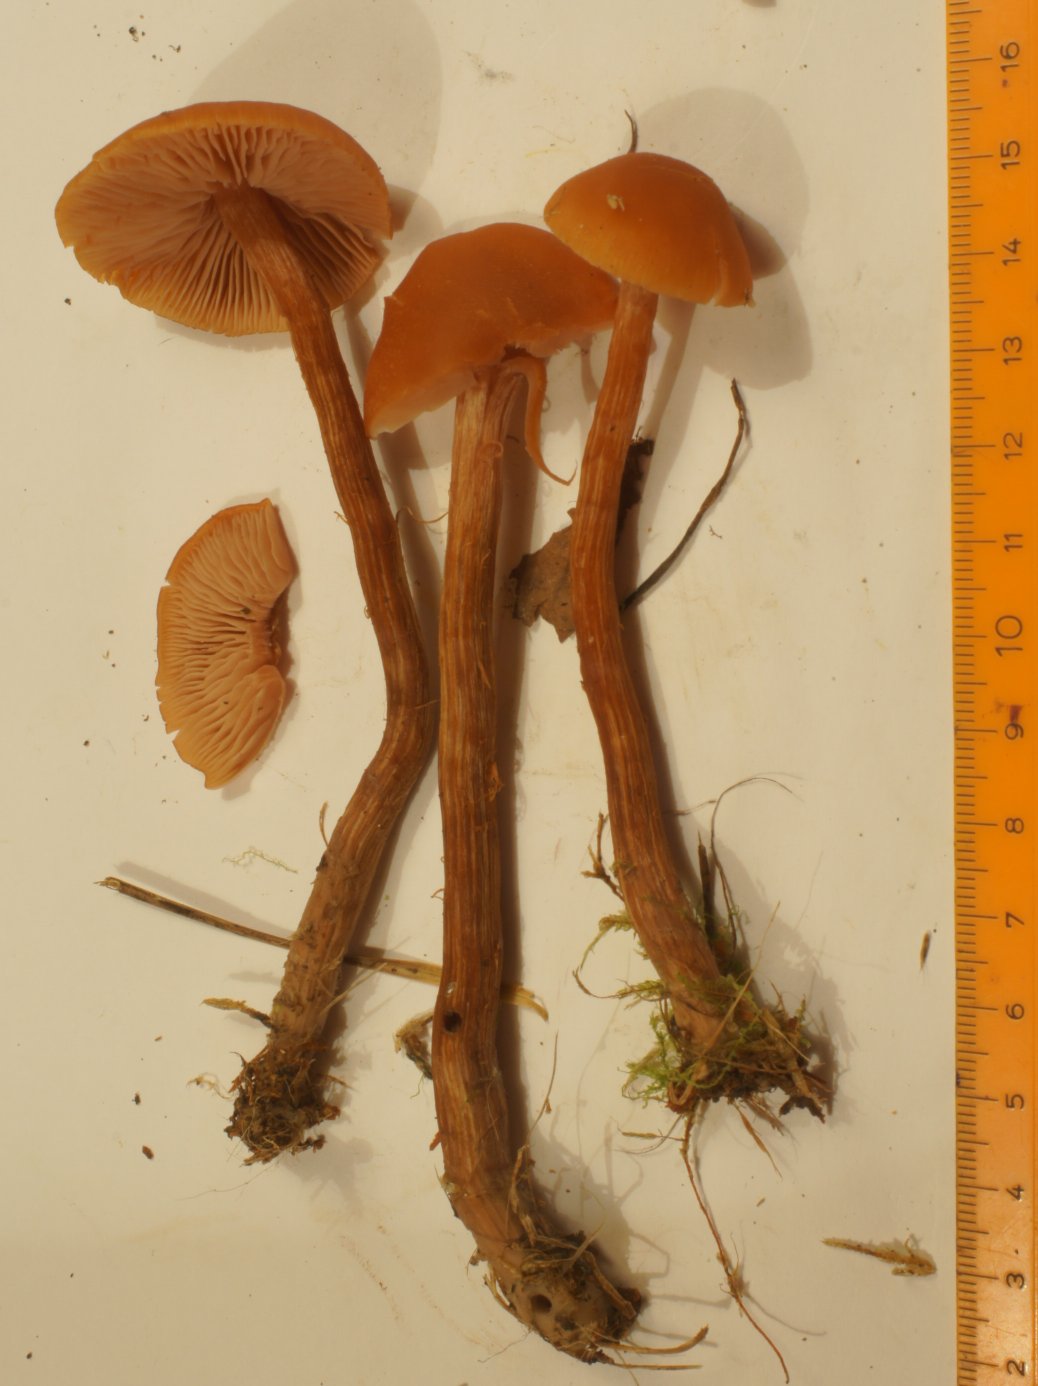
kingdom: Fungi
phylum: Basidiomycota
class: Agaricomycetes
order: Agaricales
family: Hydnangiaceae
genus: Laccaria
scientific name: Laccaria proxima
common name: stor ametysthat
